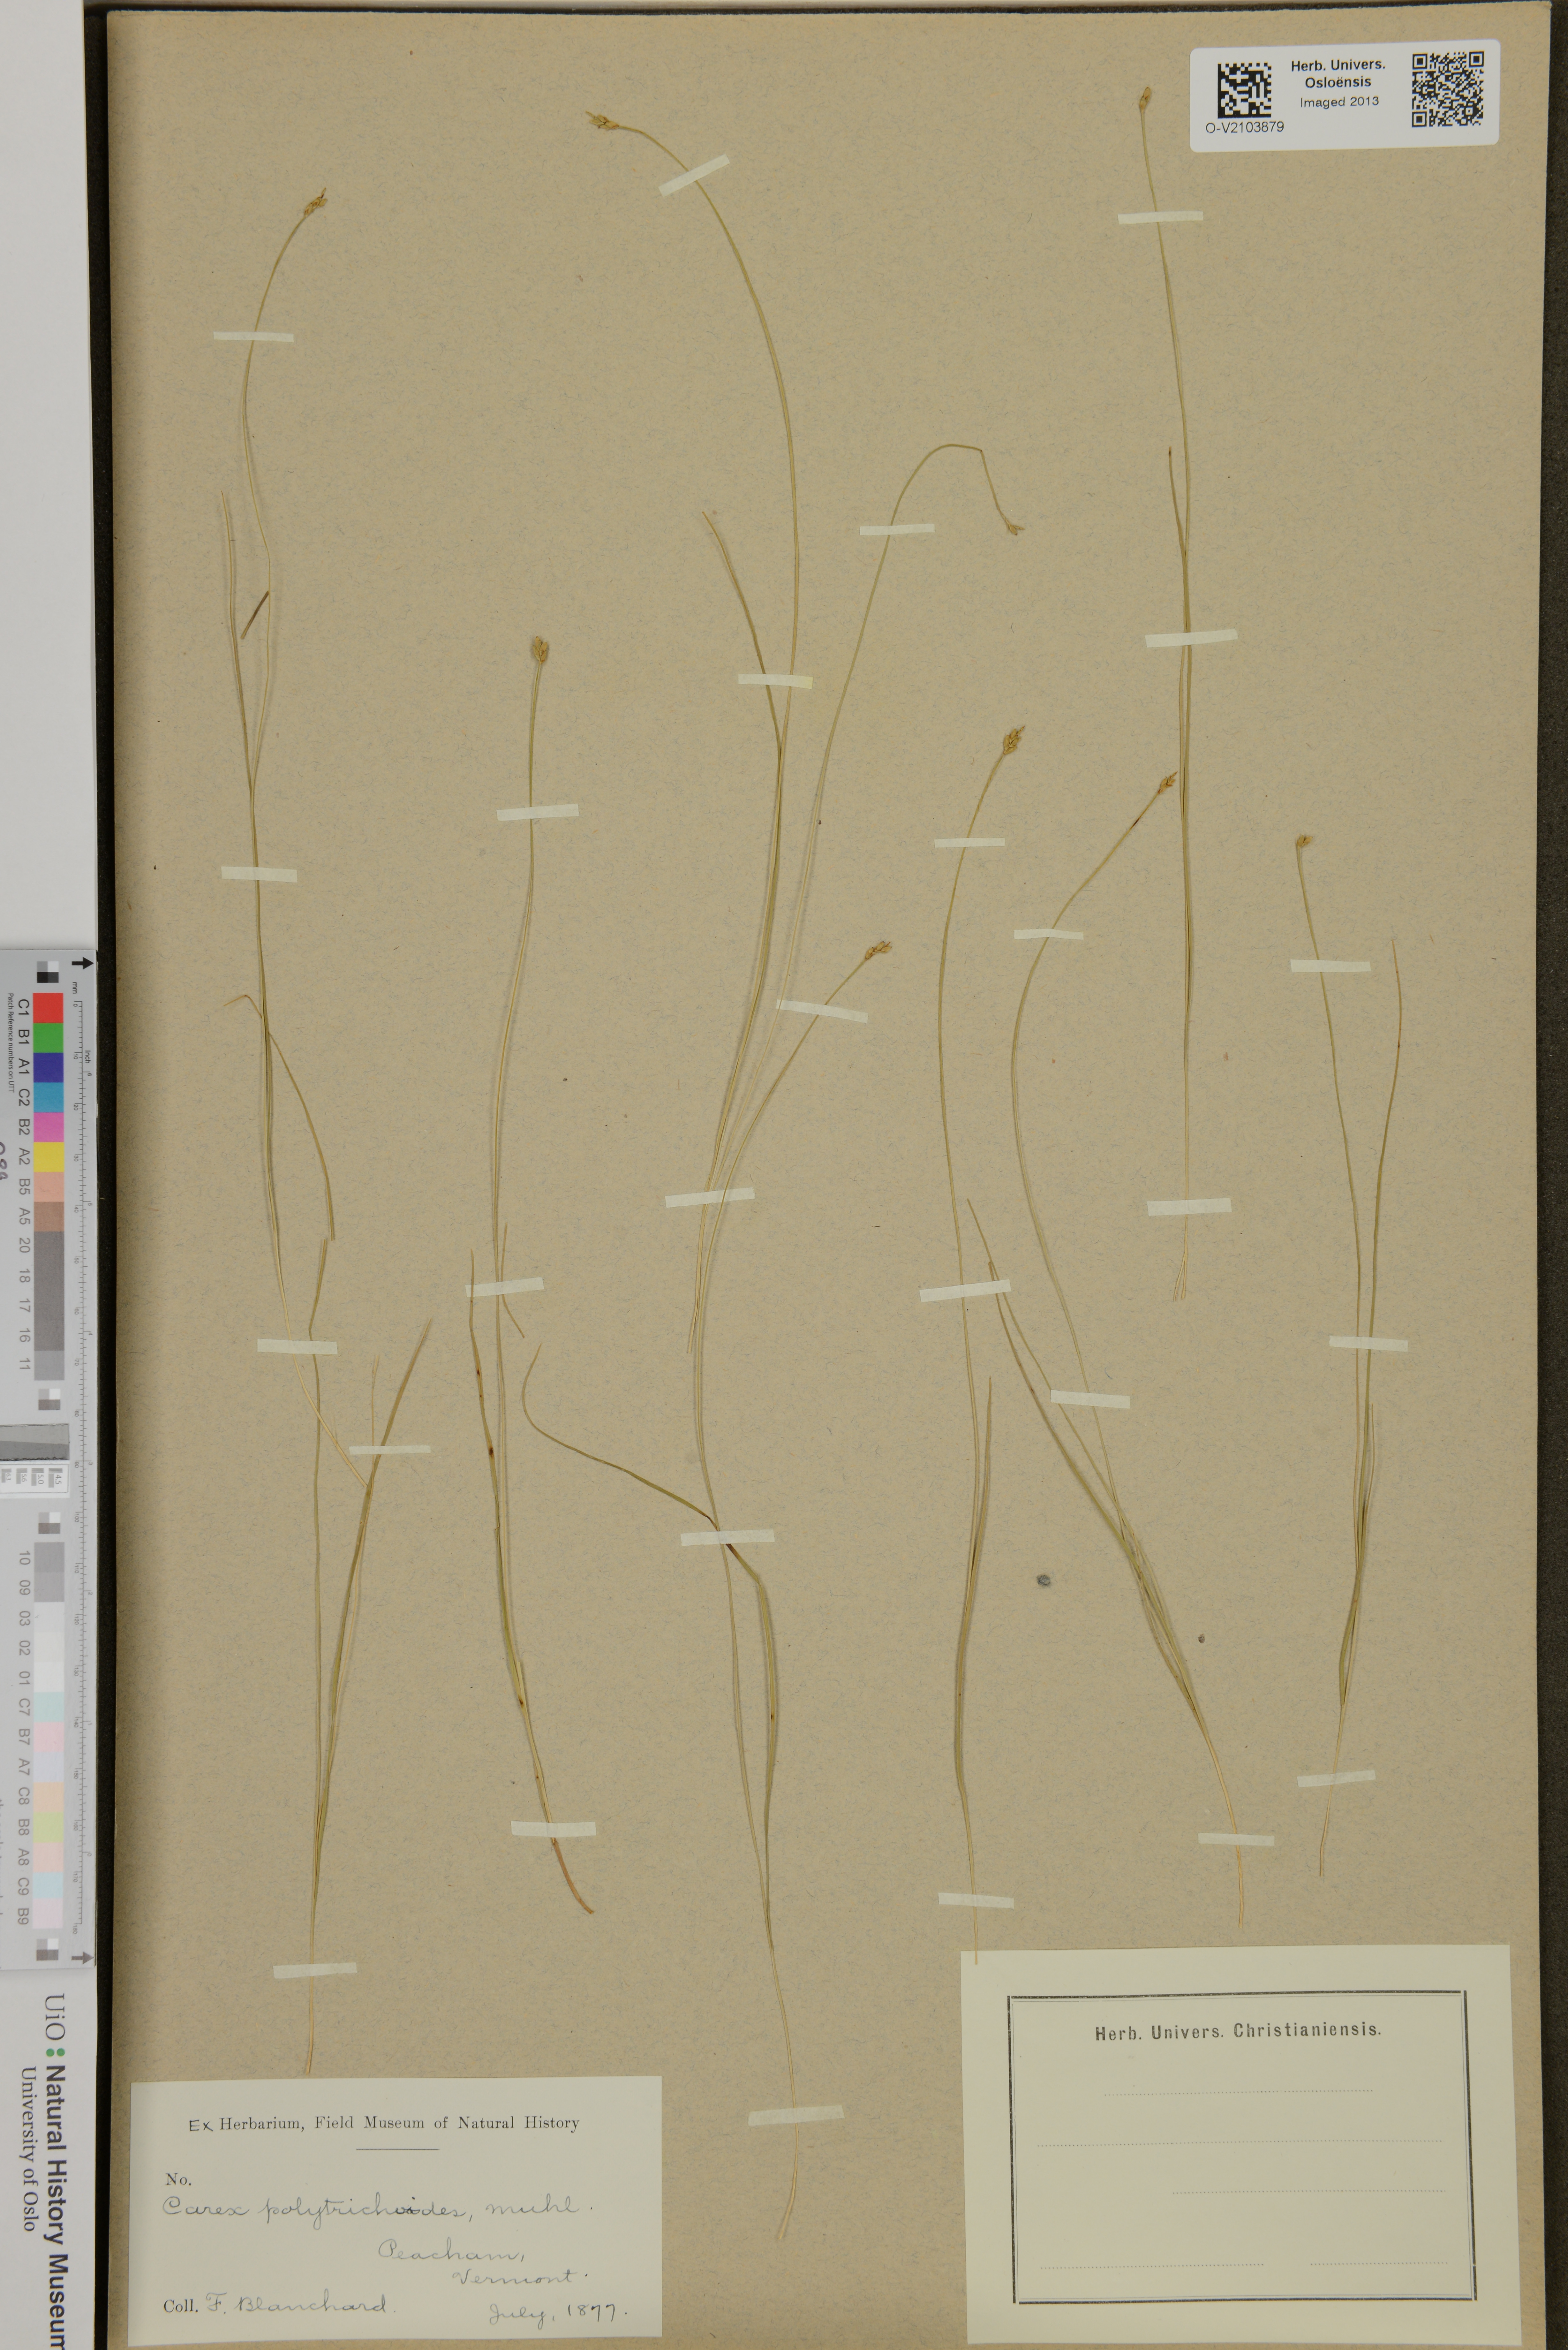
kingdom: Plantae
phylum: Tracheophyta
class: Liliopsida
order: Poales
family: Cyperaceae
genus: Carex
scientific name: Carex polytrichoides
